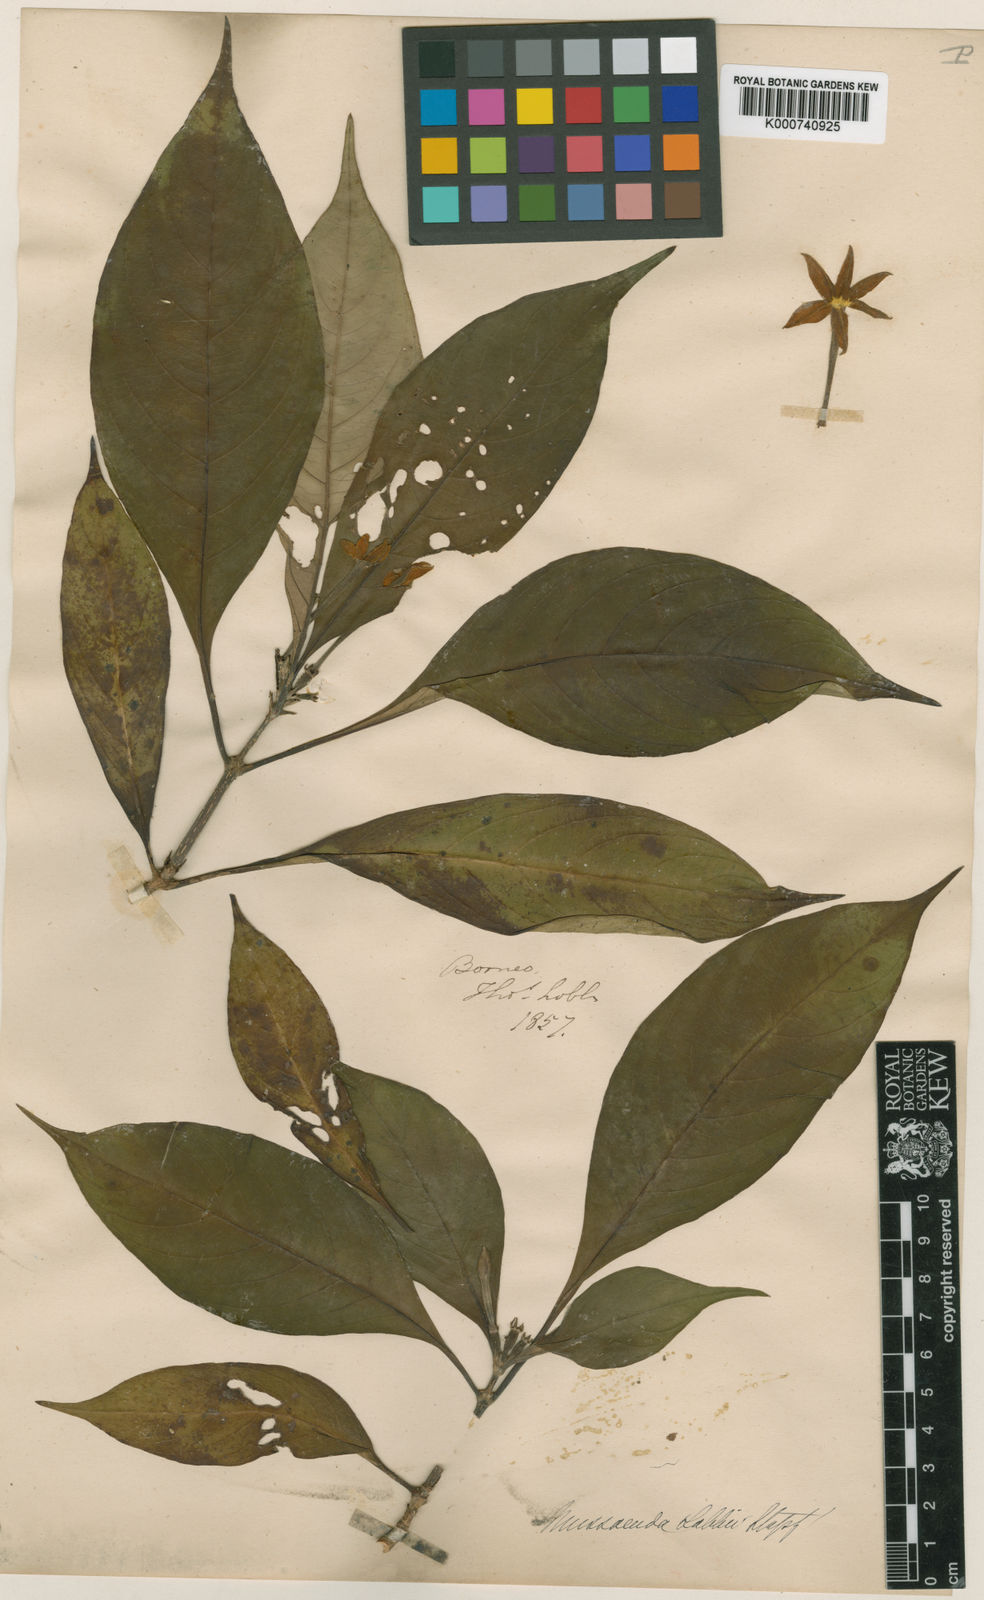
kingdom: Plantae
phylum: Tracheophyta
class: Magnoliopsida
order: Gentianales
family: Rubiaceae
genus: Mussaenda
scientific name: Mussaenda lobbii
